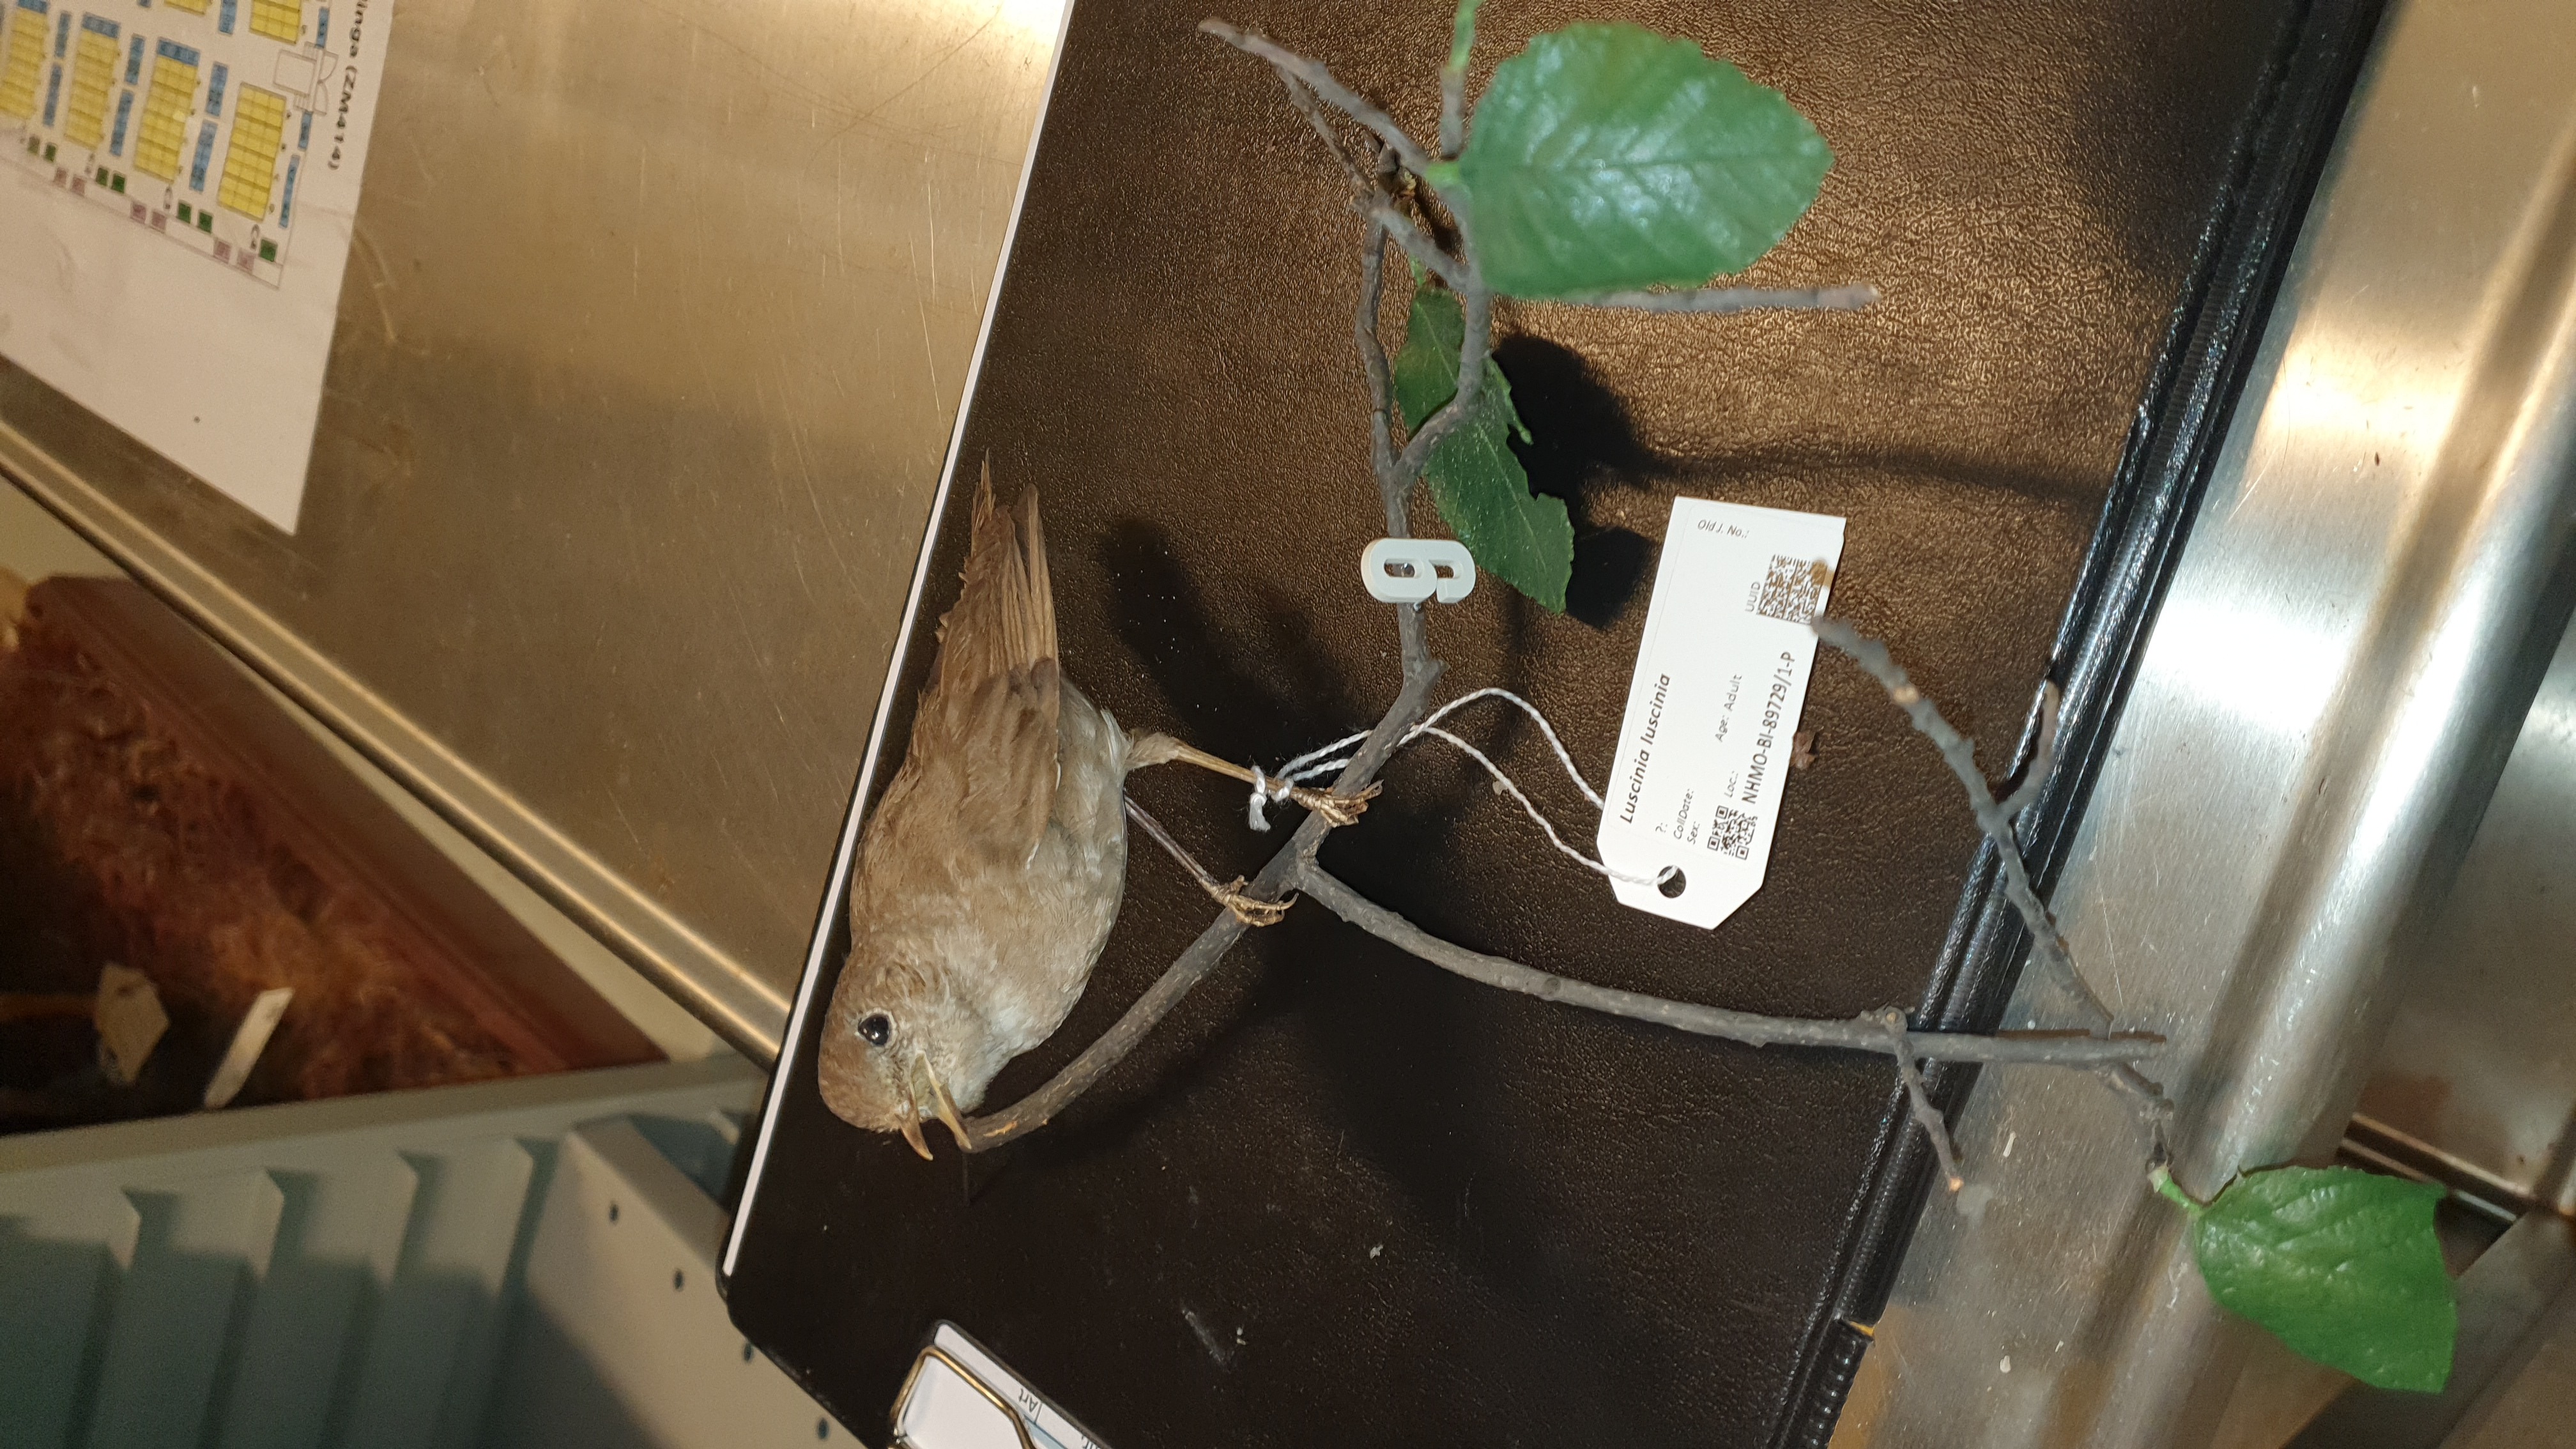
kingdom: Animalia
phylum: Chordata
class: Aves
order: Passeriformes
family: Muscicapidae
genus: Luscinia
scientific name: Luscinia luscinia
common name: Thrush nightingale
